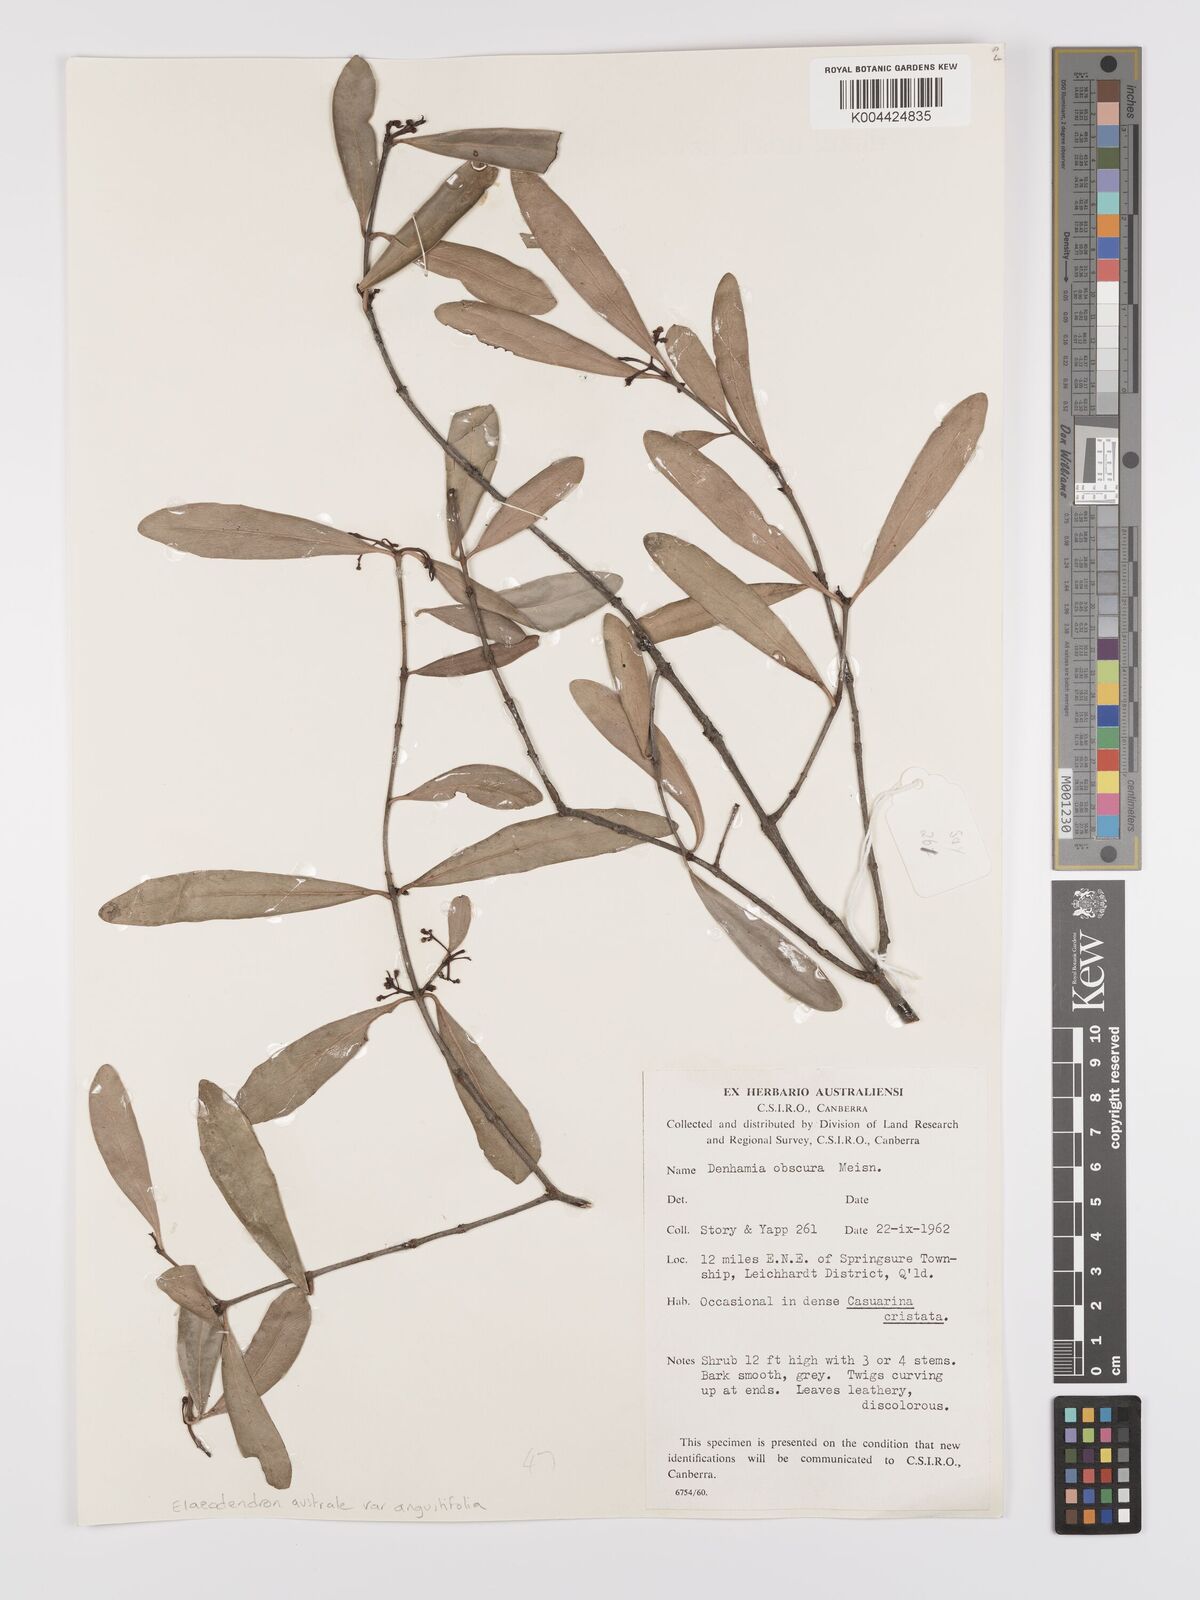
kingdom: Plantae
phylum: Tracheophyta
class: Magnoliopsida
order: Celastrales
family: Celastraceae
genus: Elaeodendron
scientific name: Elaeodendron australe
